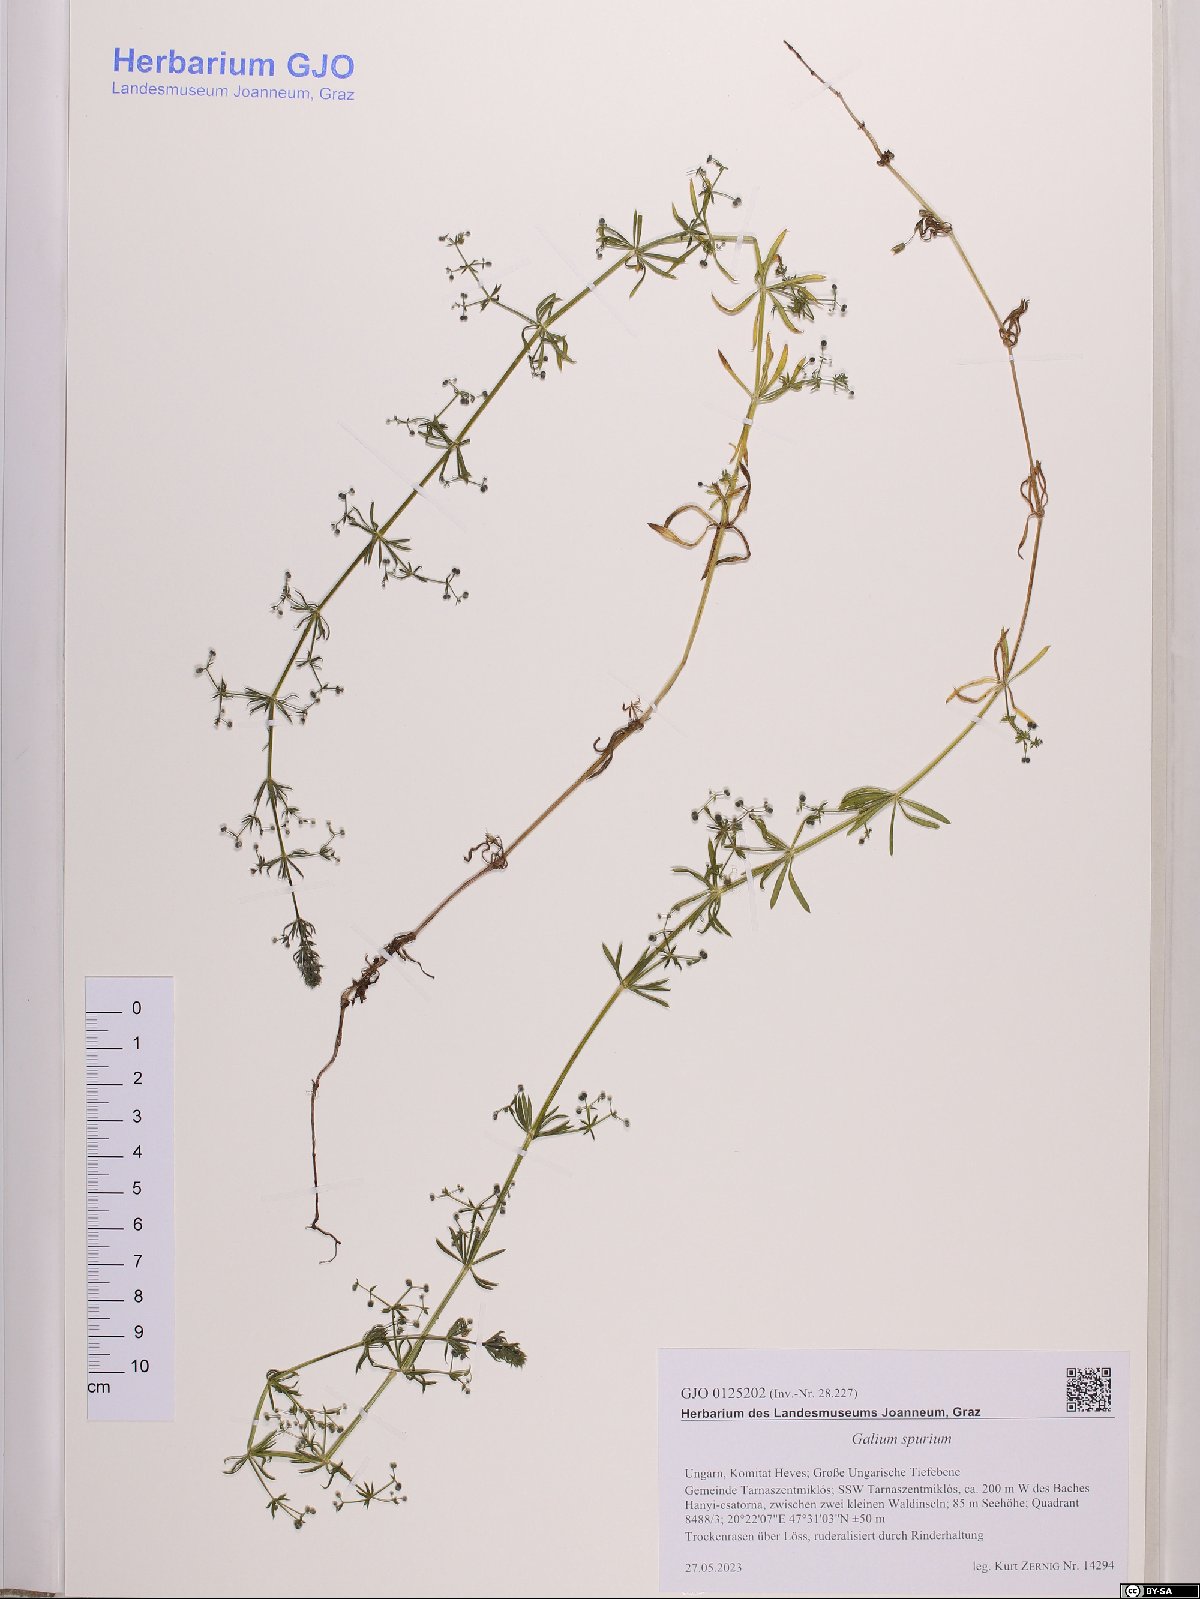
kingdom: Plantae
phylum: Tracheophyta
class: Magnoliopsida
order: Gentianales
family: Rubiaceae
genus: Galium
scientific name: Galium spurium
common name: False cleavers
